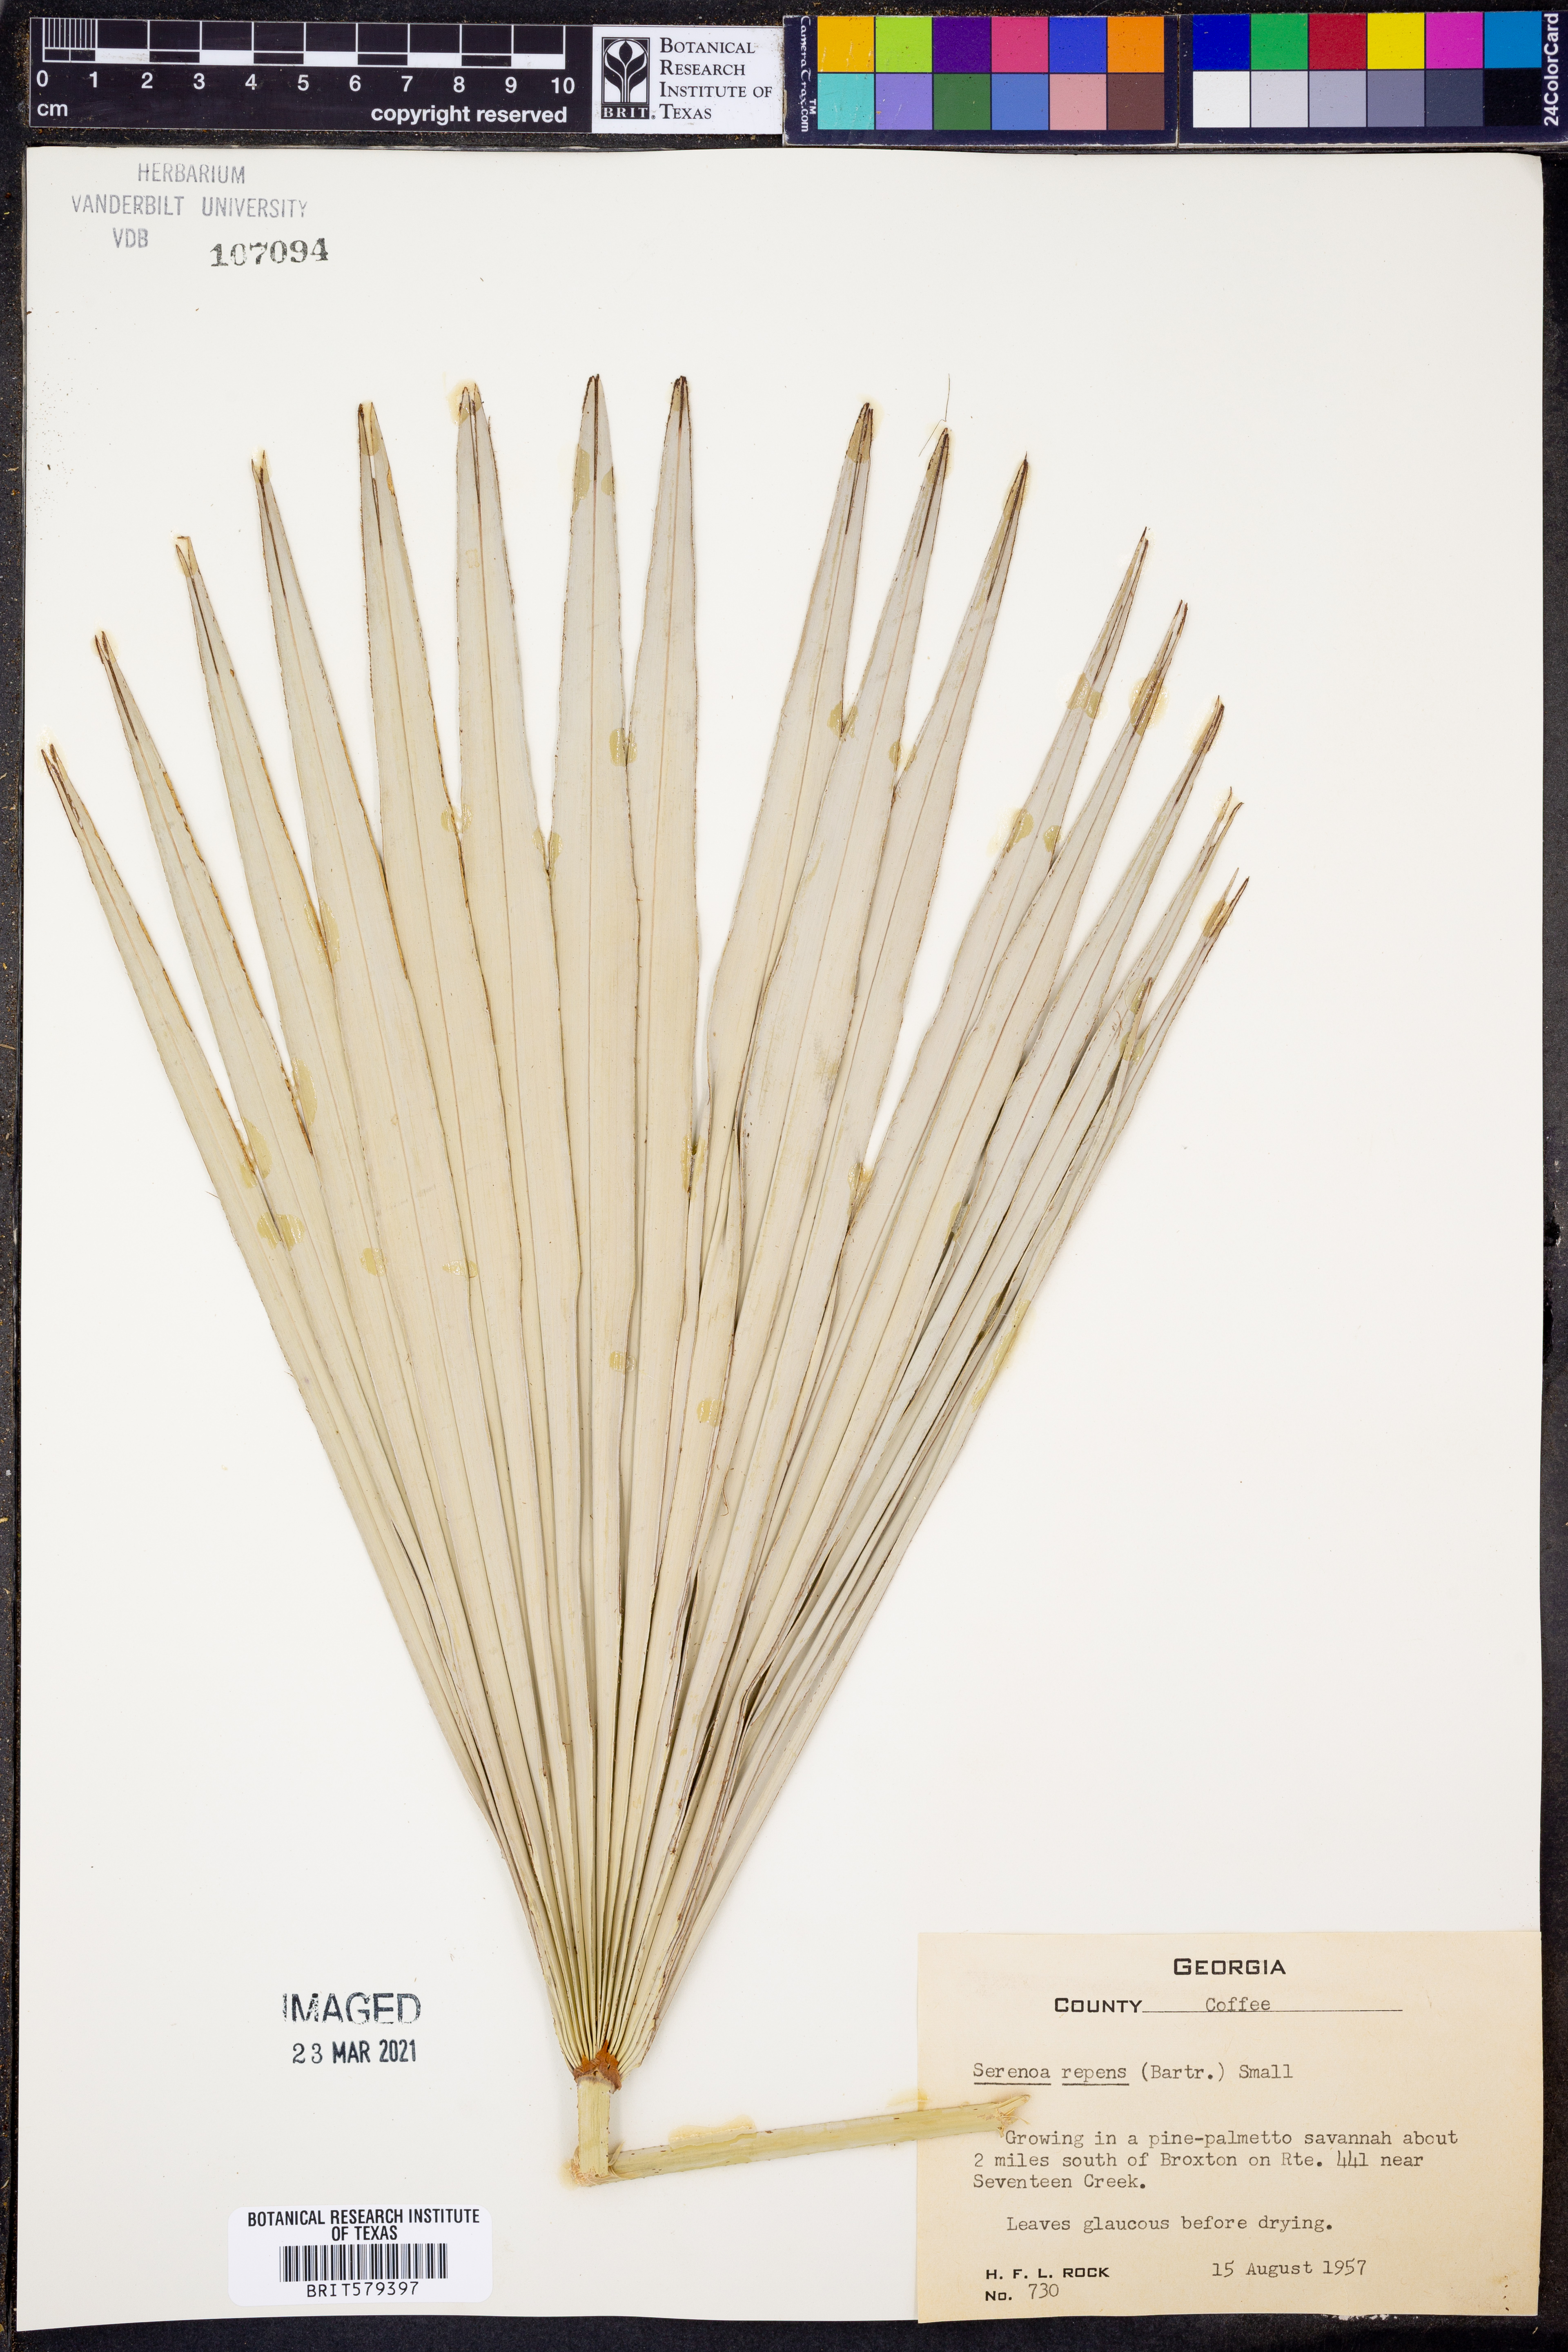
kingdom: Plantae
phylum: Tracheophyta
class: Liliopsida
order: Arecales
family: Arecaceae
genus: Serenoa
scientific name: Serenoa repens
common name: Saw-palmetto
